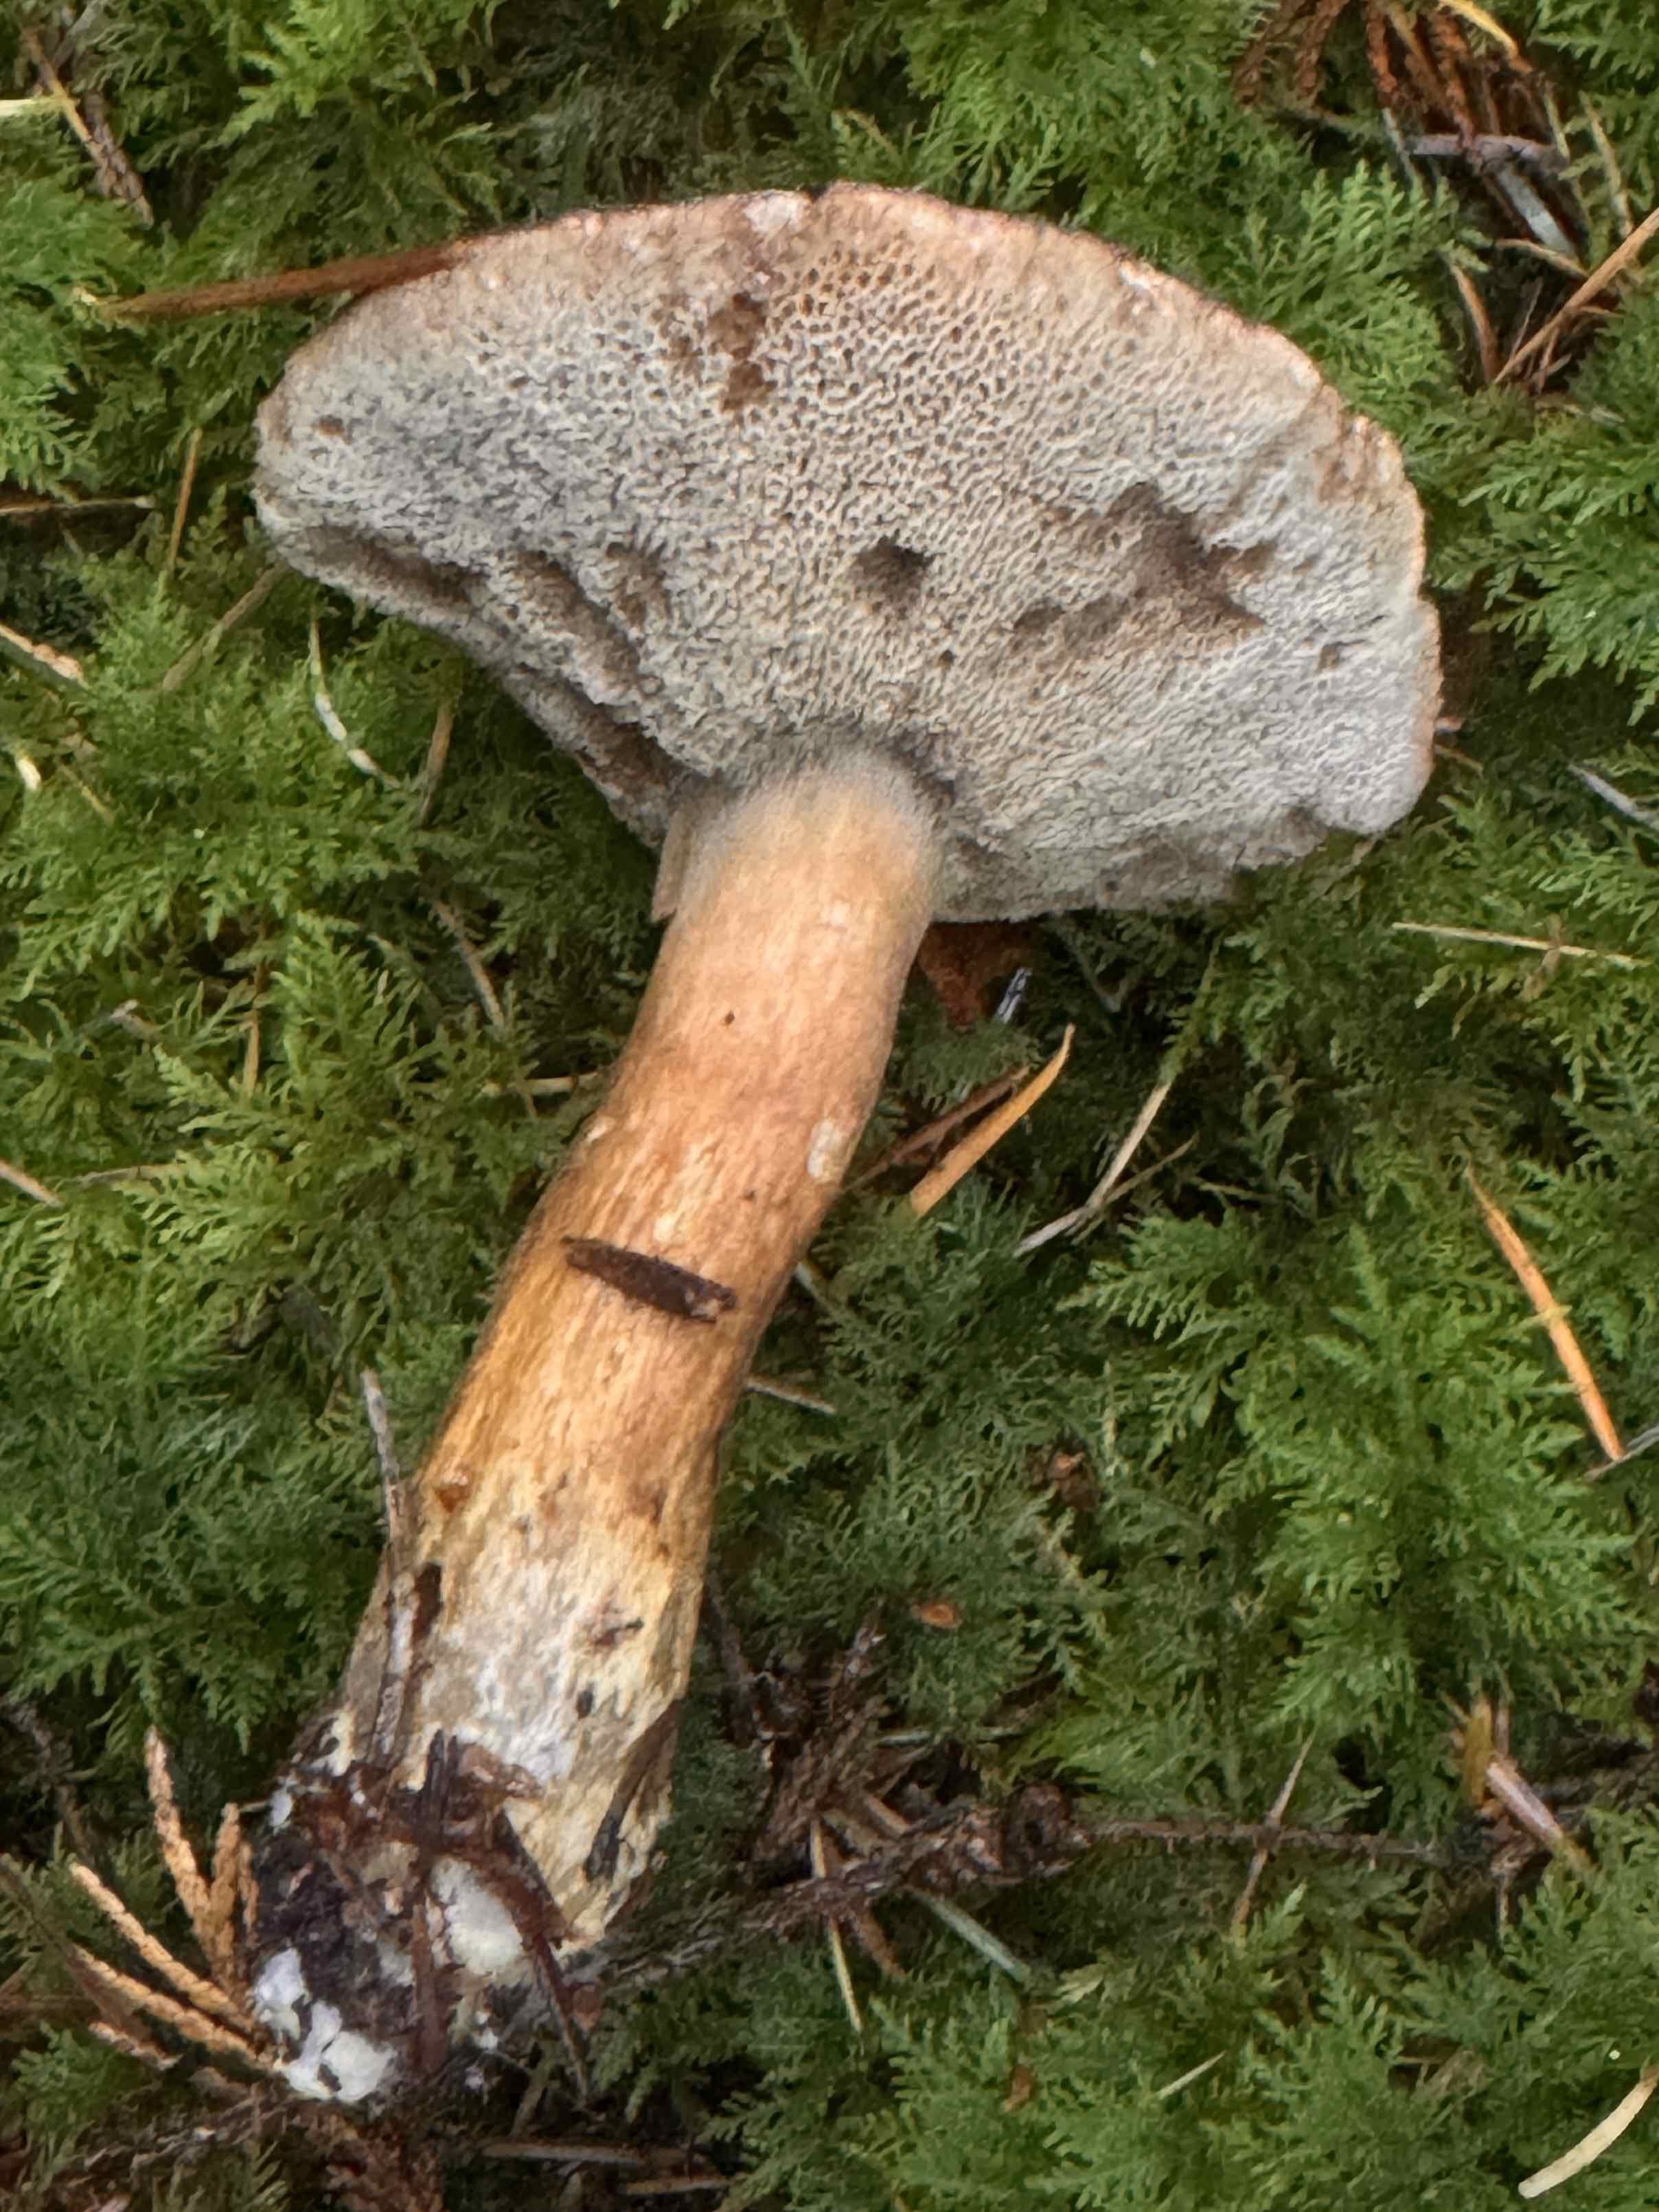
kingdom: Fungi
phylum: Basidiomycota
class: Agaricomycetes
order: Boletales
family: Boletaceae
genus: Imleria
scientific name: Imleria badia
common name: brunstokket rørhat
